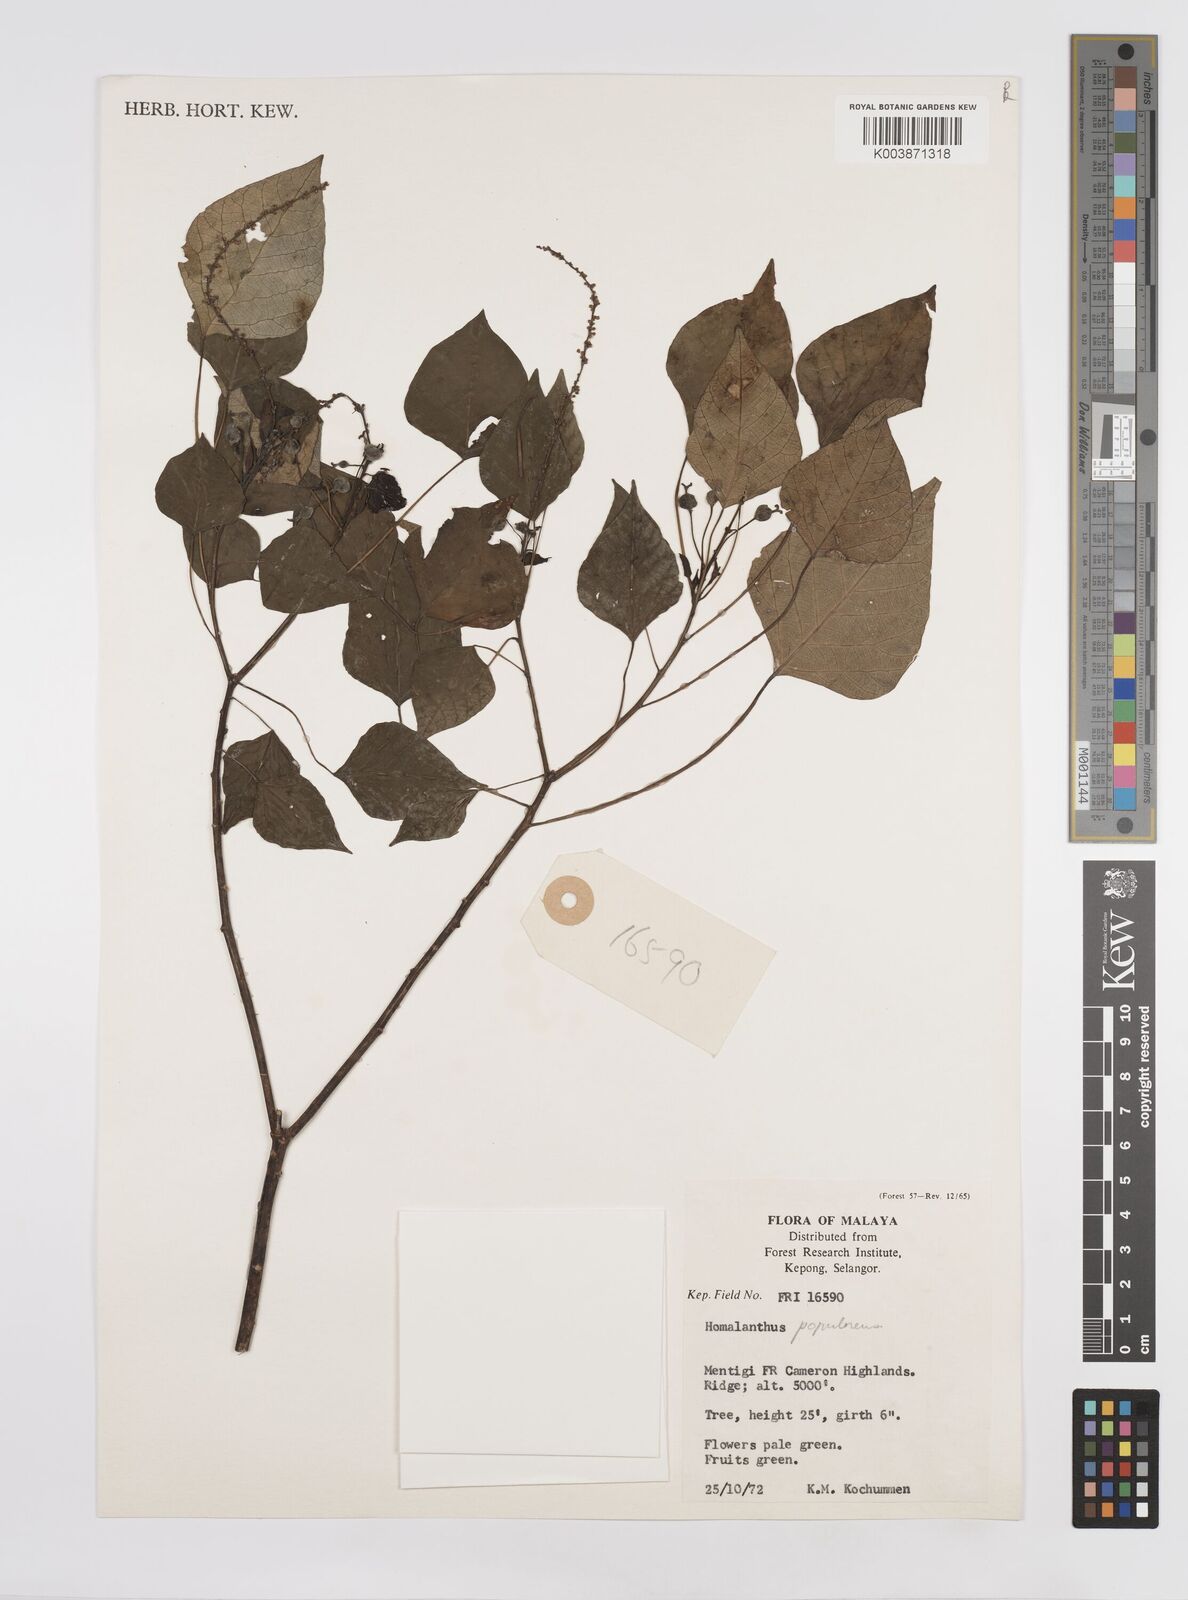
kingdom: Plantae
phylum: Tracheophyta
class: Magnoliopsida
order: Malpighiales
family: Euphorbiaceae
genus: Homalanthus
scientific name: Homalanthus populneus
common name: Spurge
